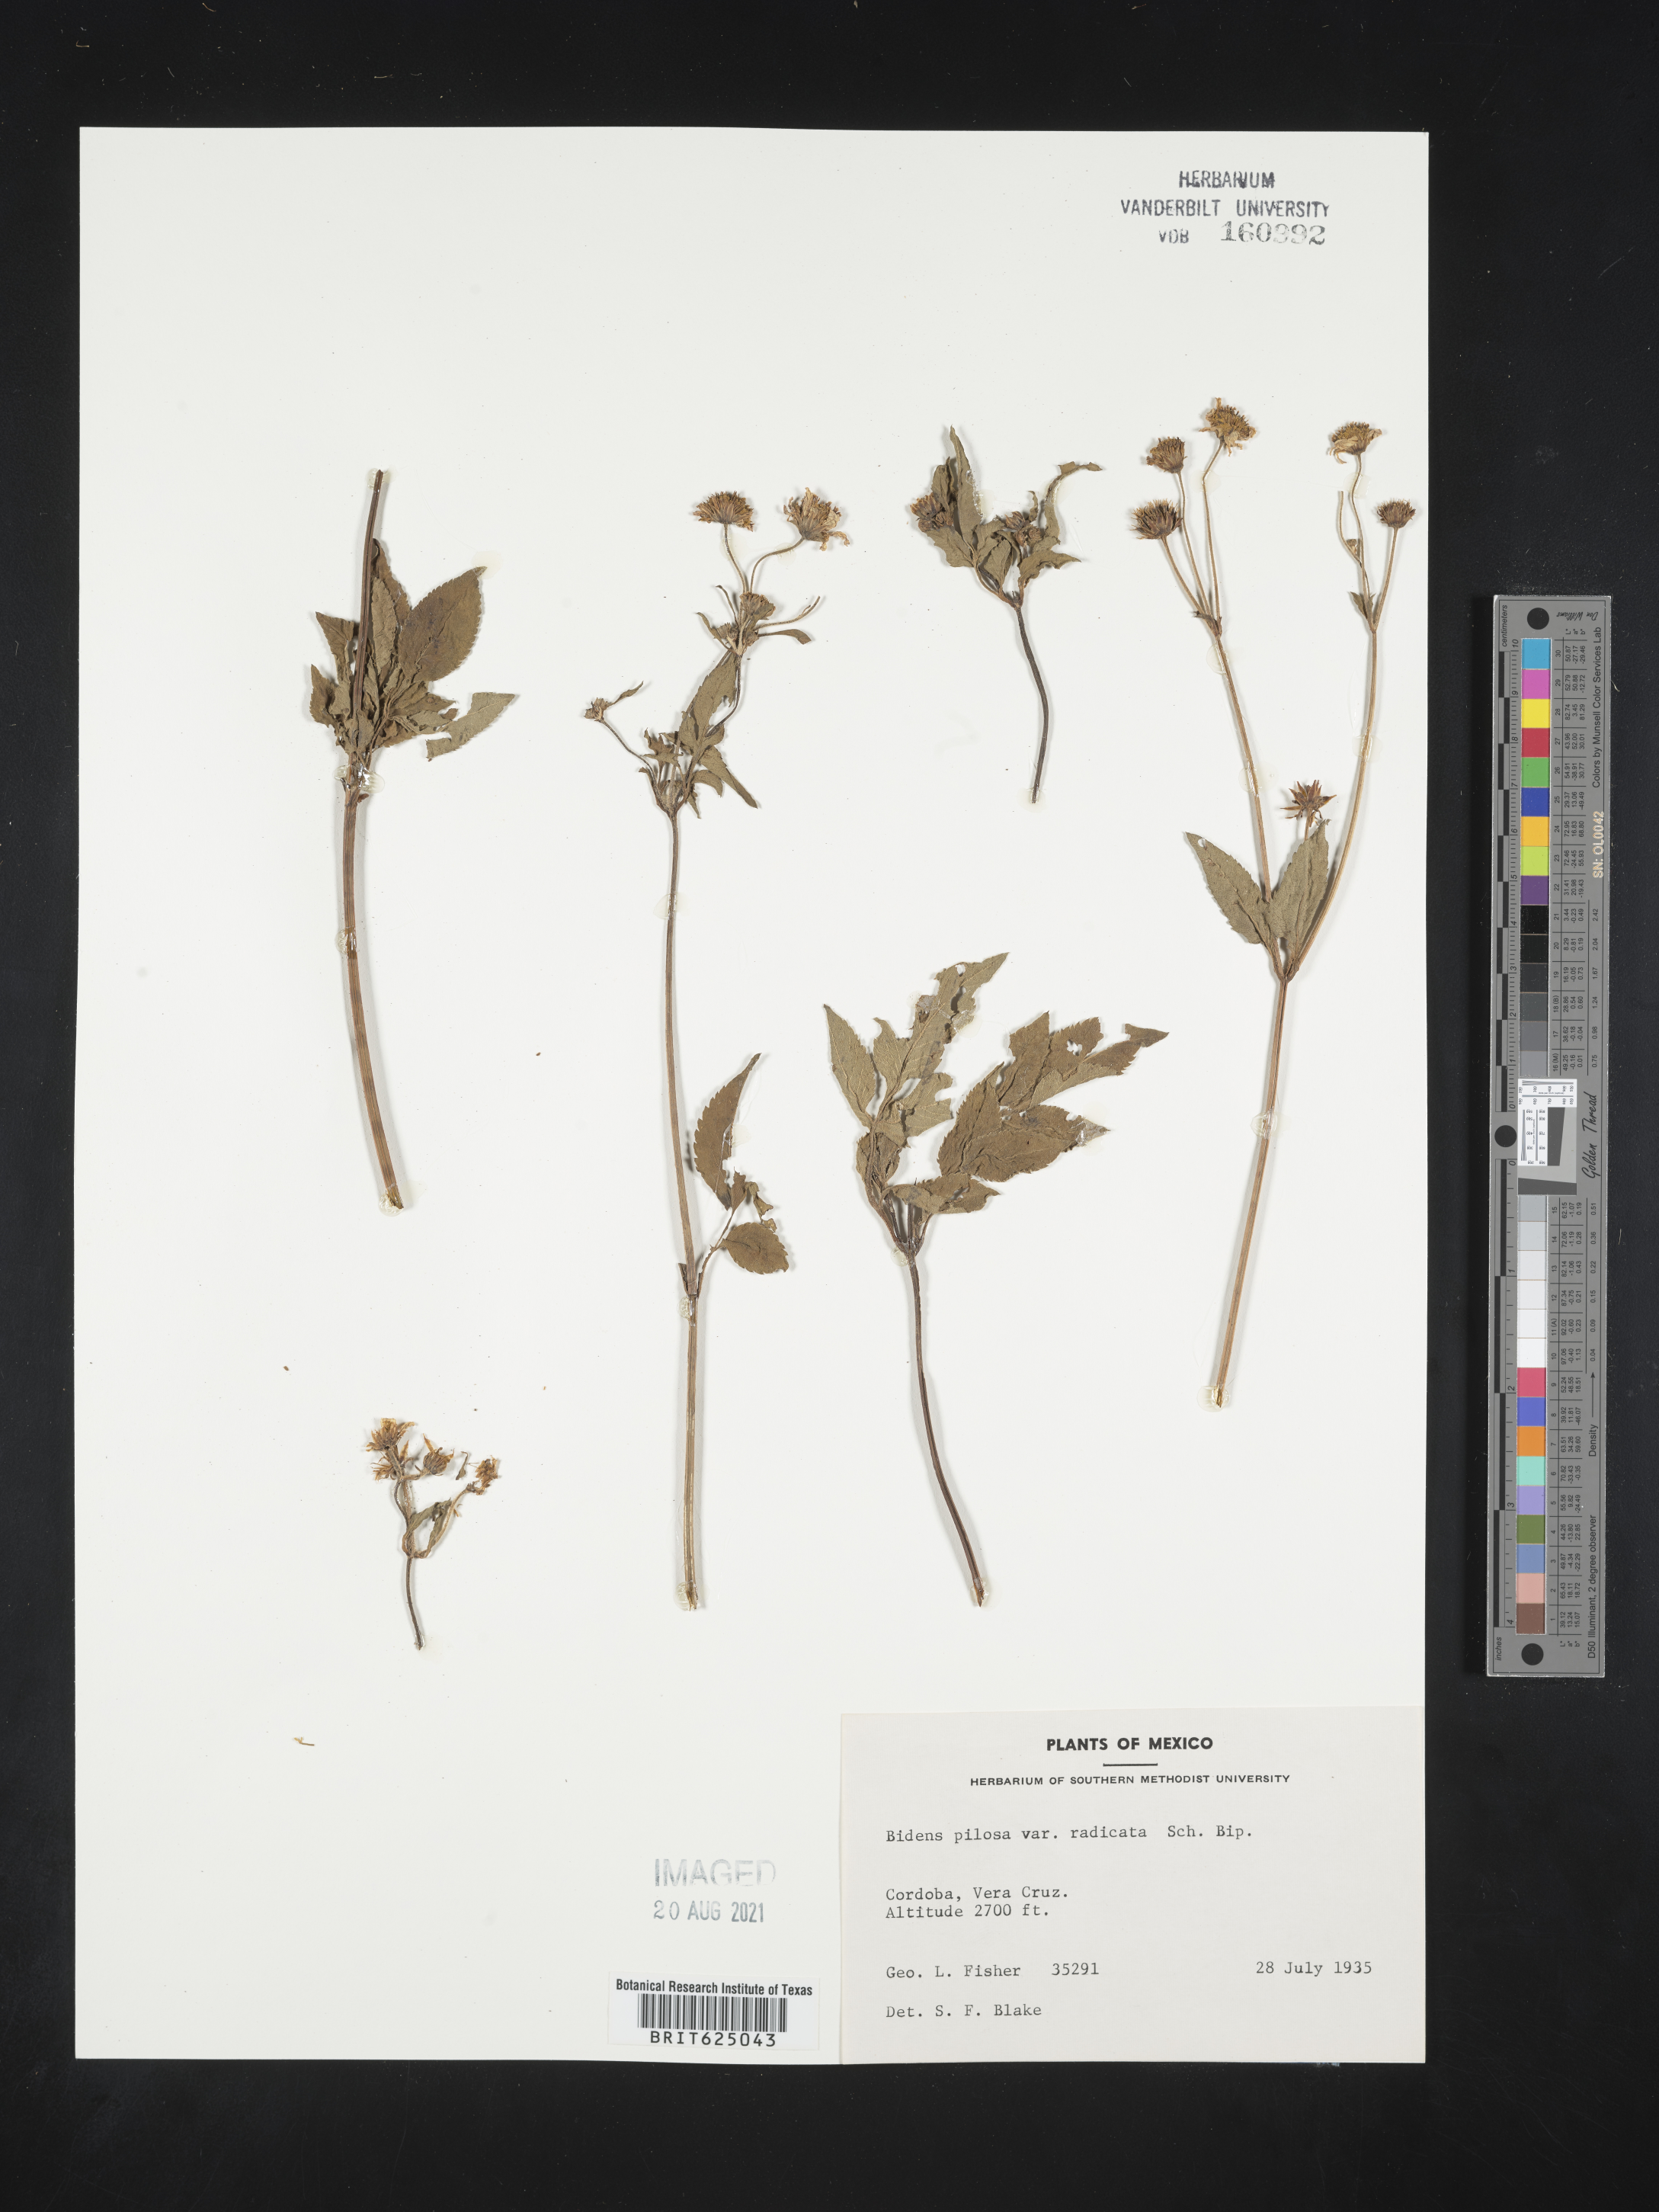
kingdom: Plantae
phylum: Tracheophyta
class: Magnoliopsida
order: Asterales
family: Asteraceae
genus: Bidens
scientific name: Bidens
